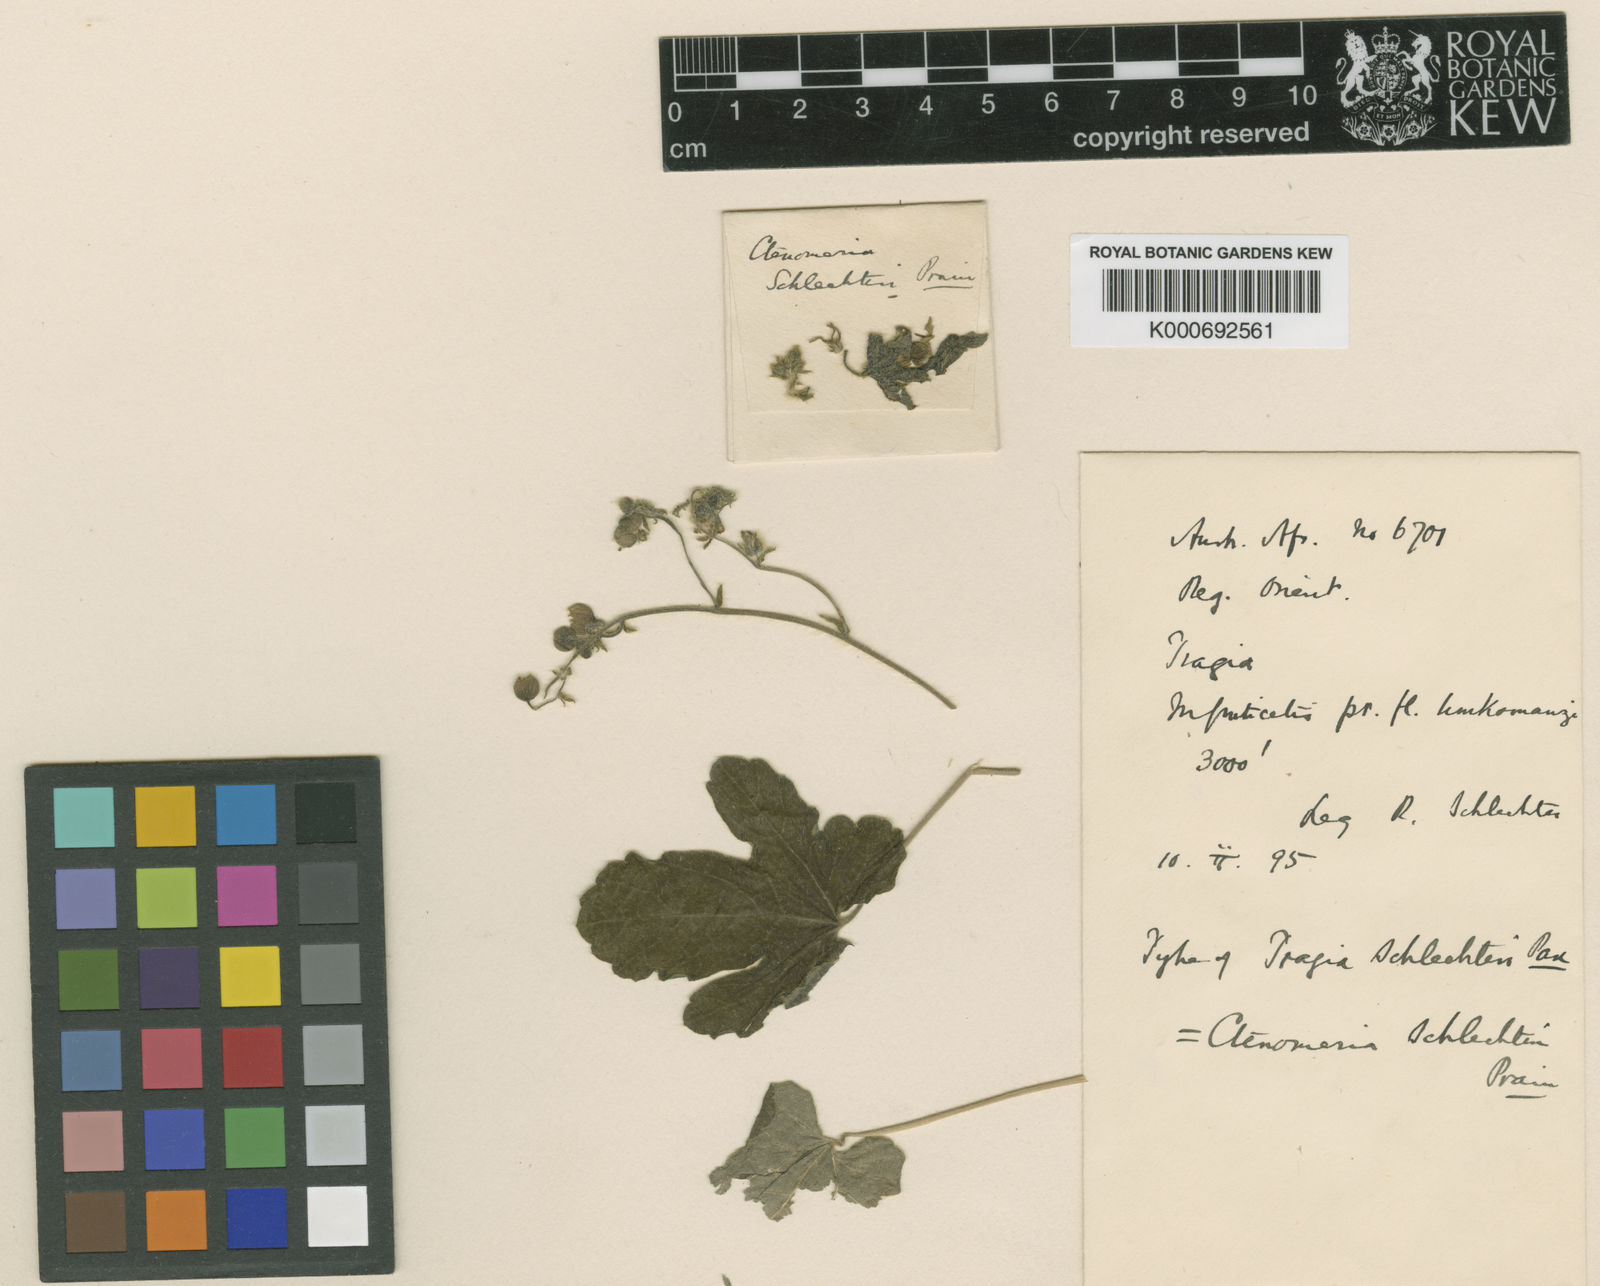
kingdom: Plantae
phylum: Tracheophyta
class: Magnoliopsida
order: Malpighiales
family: Euphorbiaceae
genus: Tragia
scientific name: Tragia schlechteri
